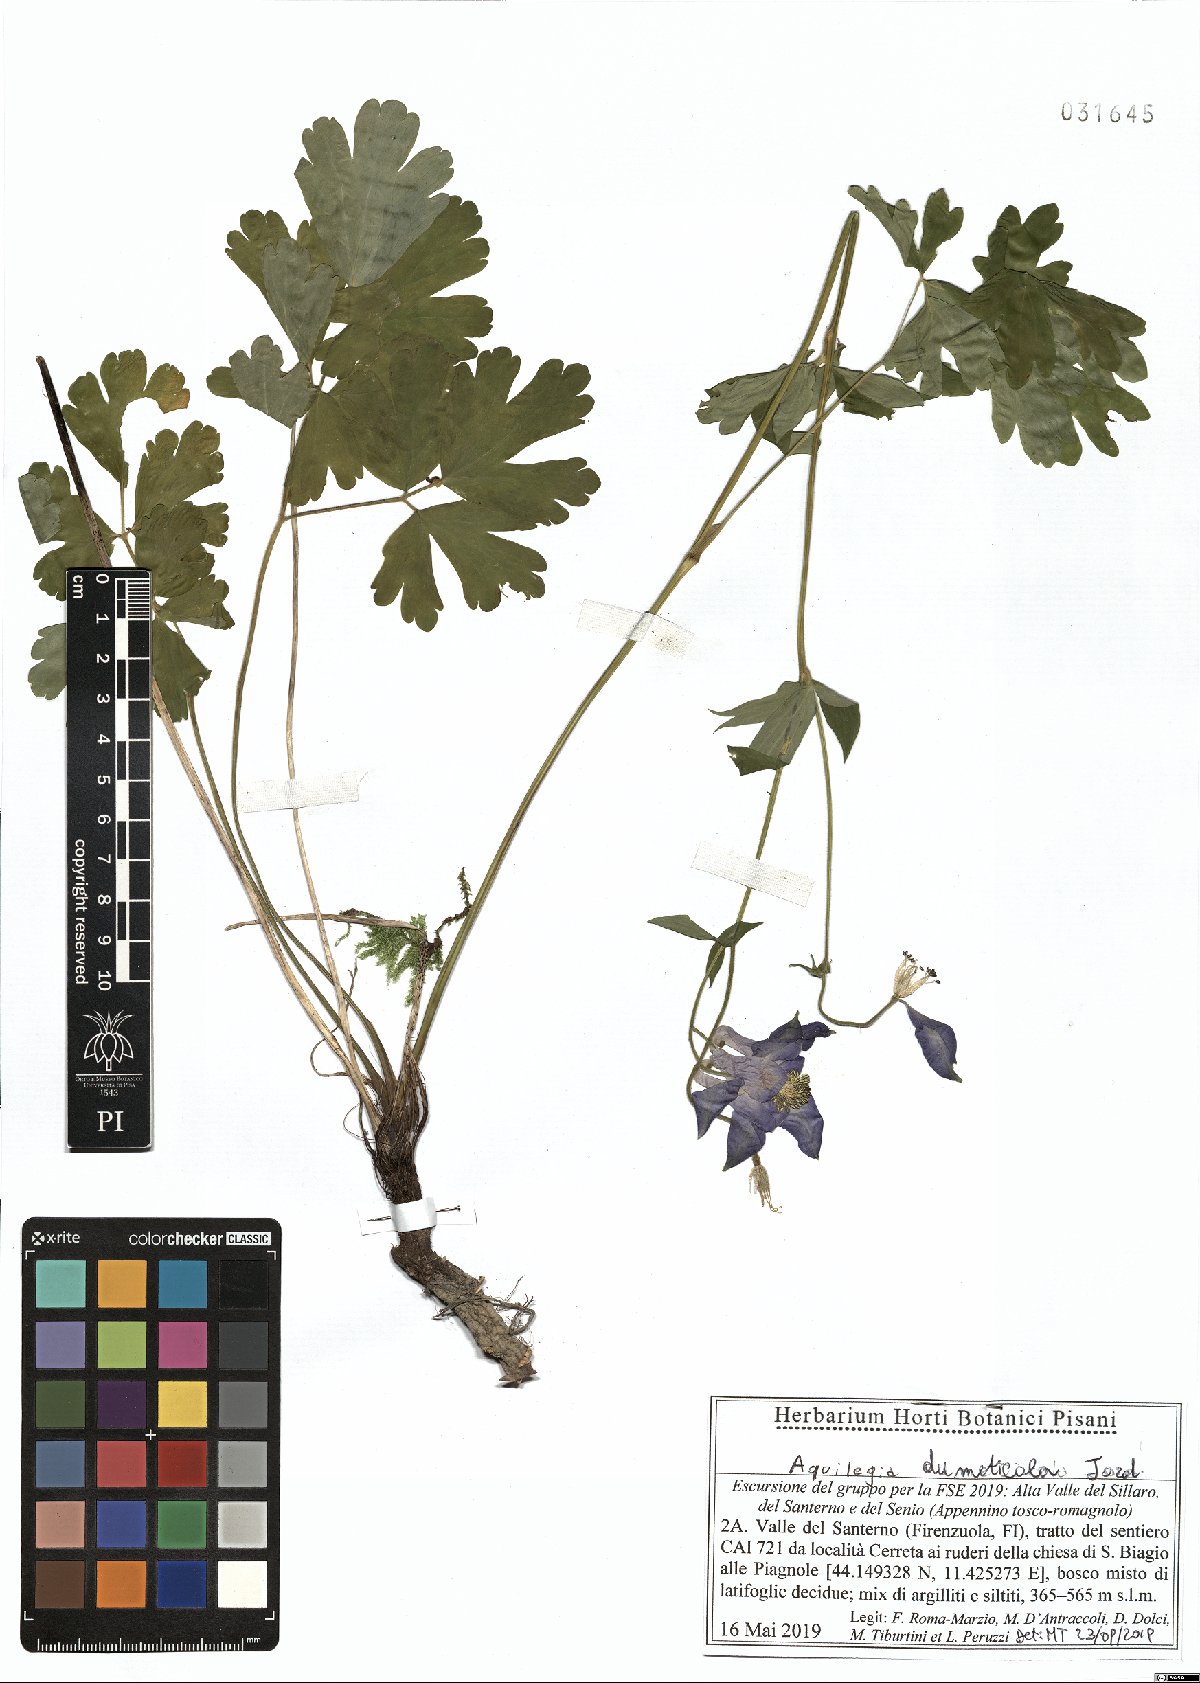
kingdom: Plantae
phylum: Tracheophyta
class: Magnoliopsida
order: Ranunculales
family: Ranunculaceae
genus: Aquilegia
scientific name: Aquilegia dumeticola
